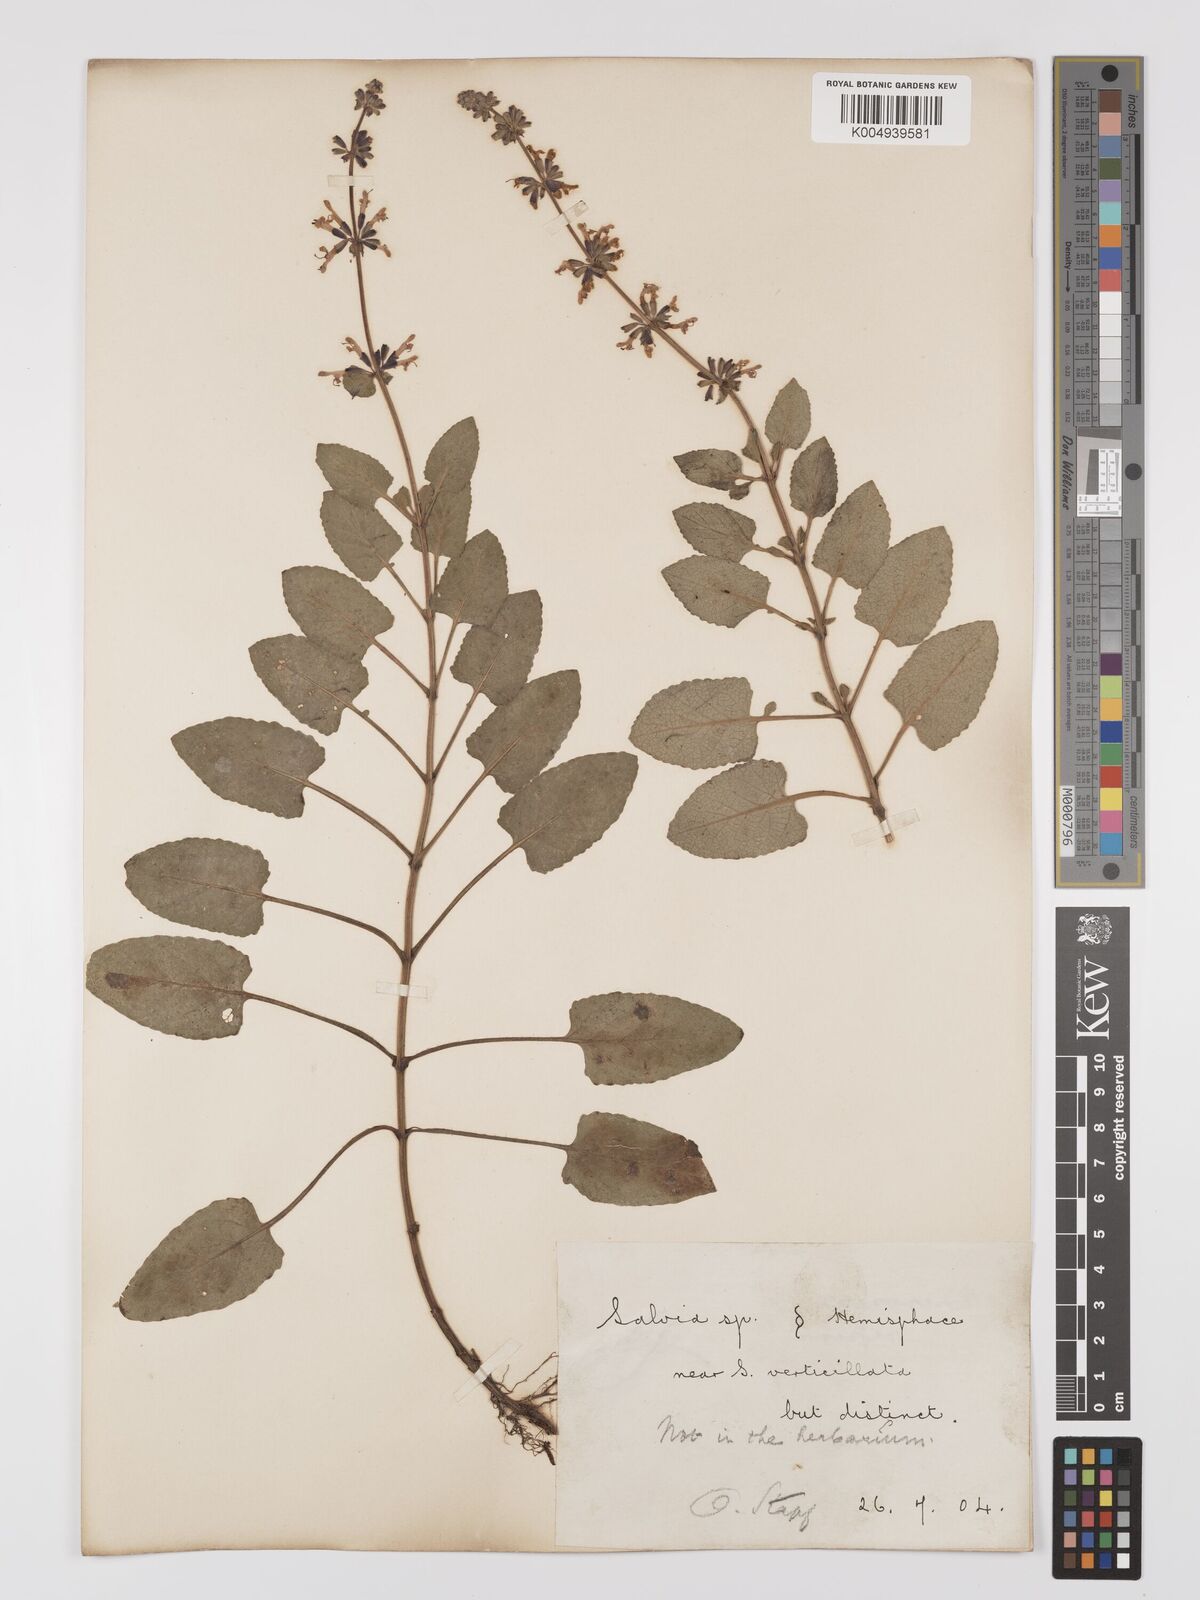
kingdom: Plantae
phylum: Tracheophyta
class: Magnoliopsida
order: Lamiales
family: Lamiaceae
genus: Salvia
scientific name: Salvia
